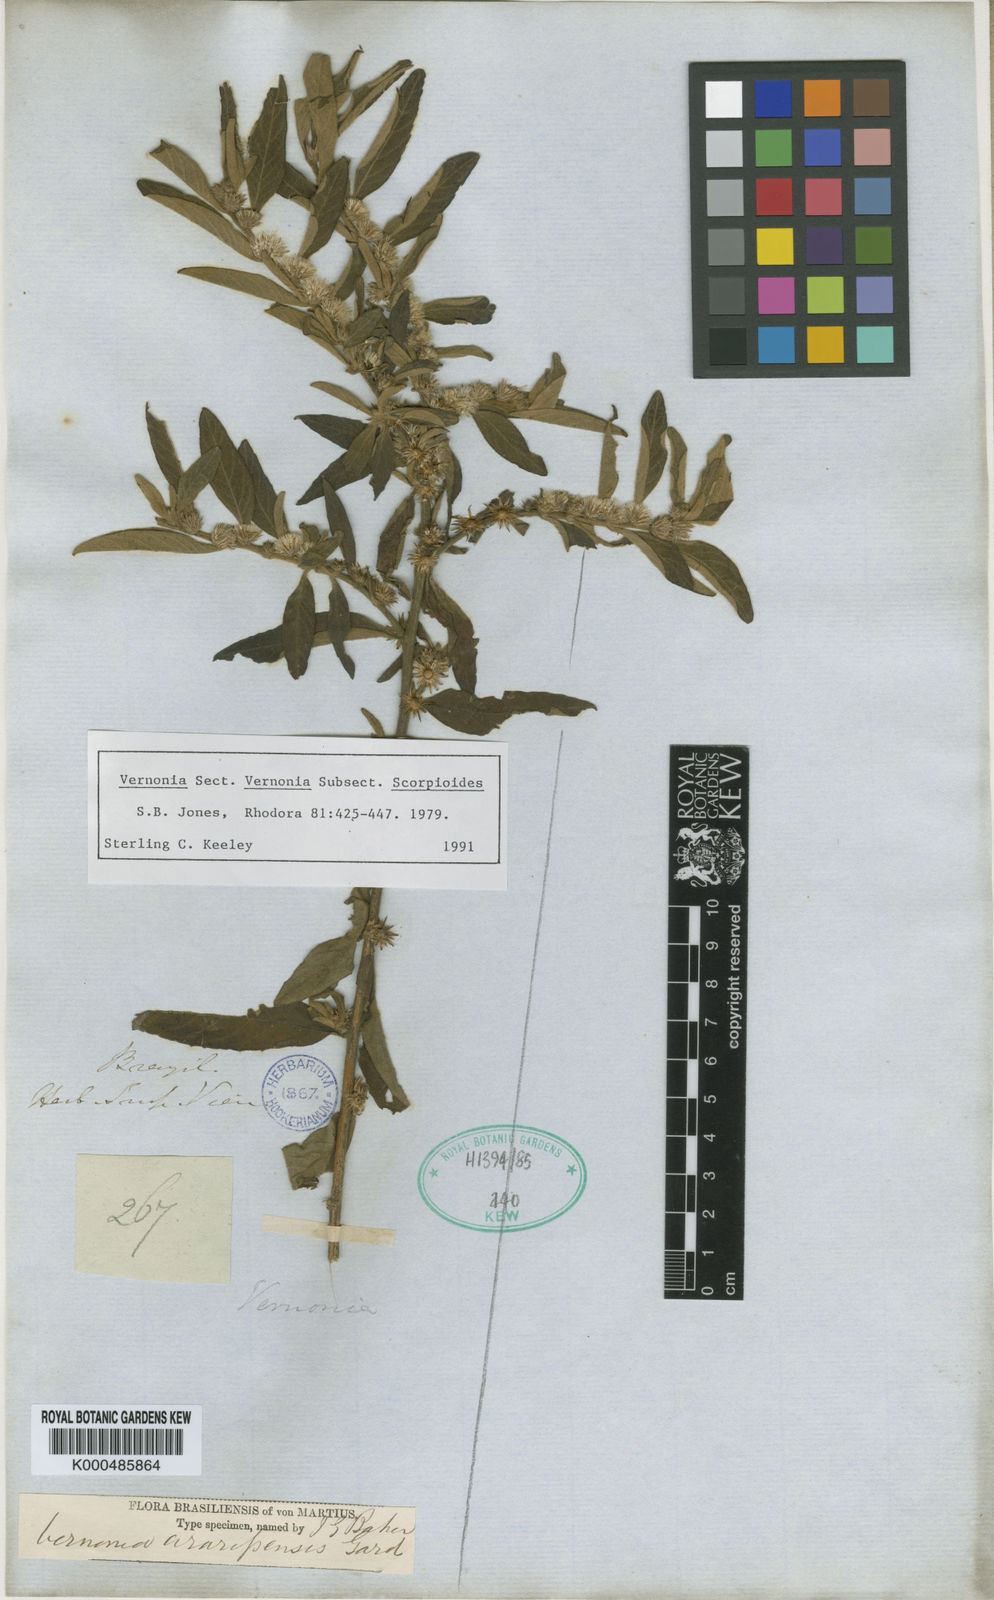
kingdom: Plantae
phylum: Tracheophyta
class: Magnoliopsida
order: Asterales
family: Asteraceae
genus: Lepidaploa
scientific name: Lepidaploa araripensis
